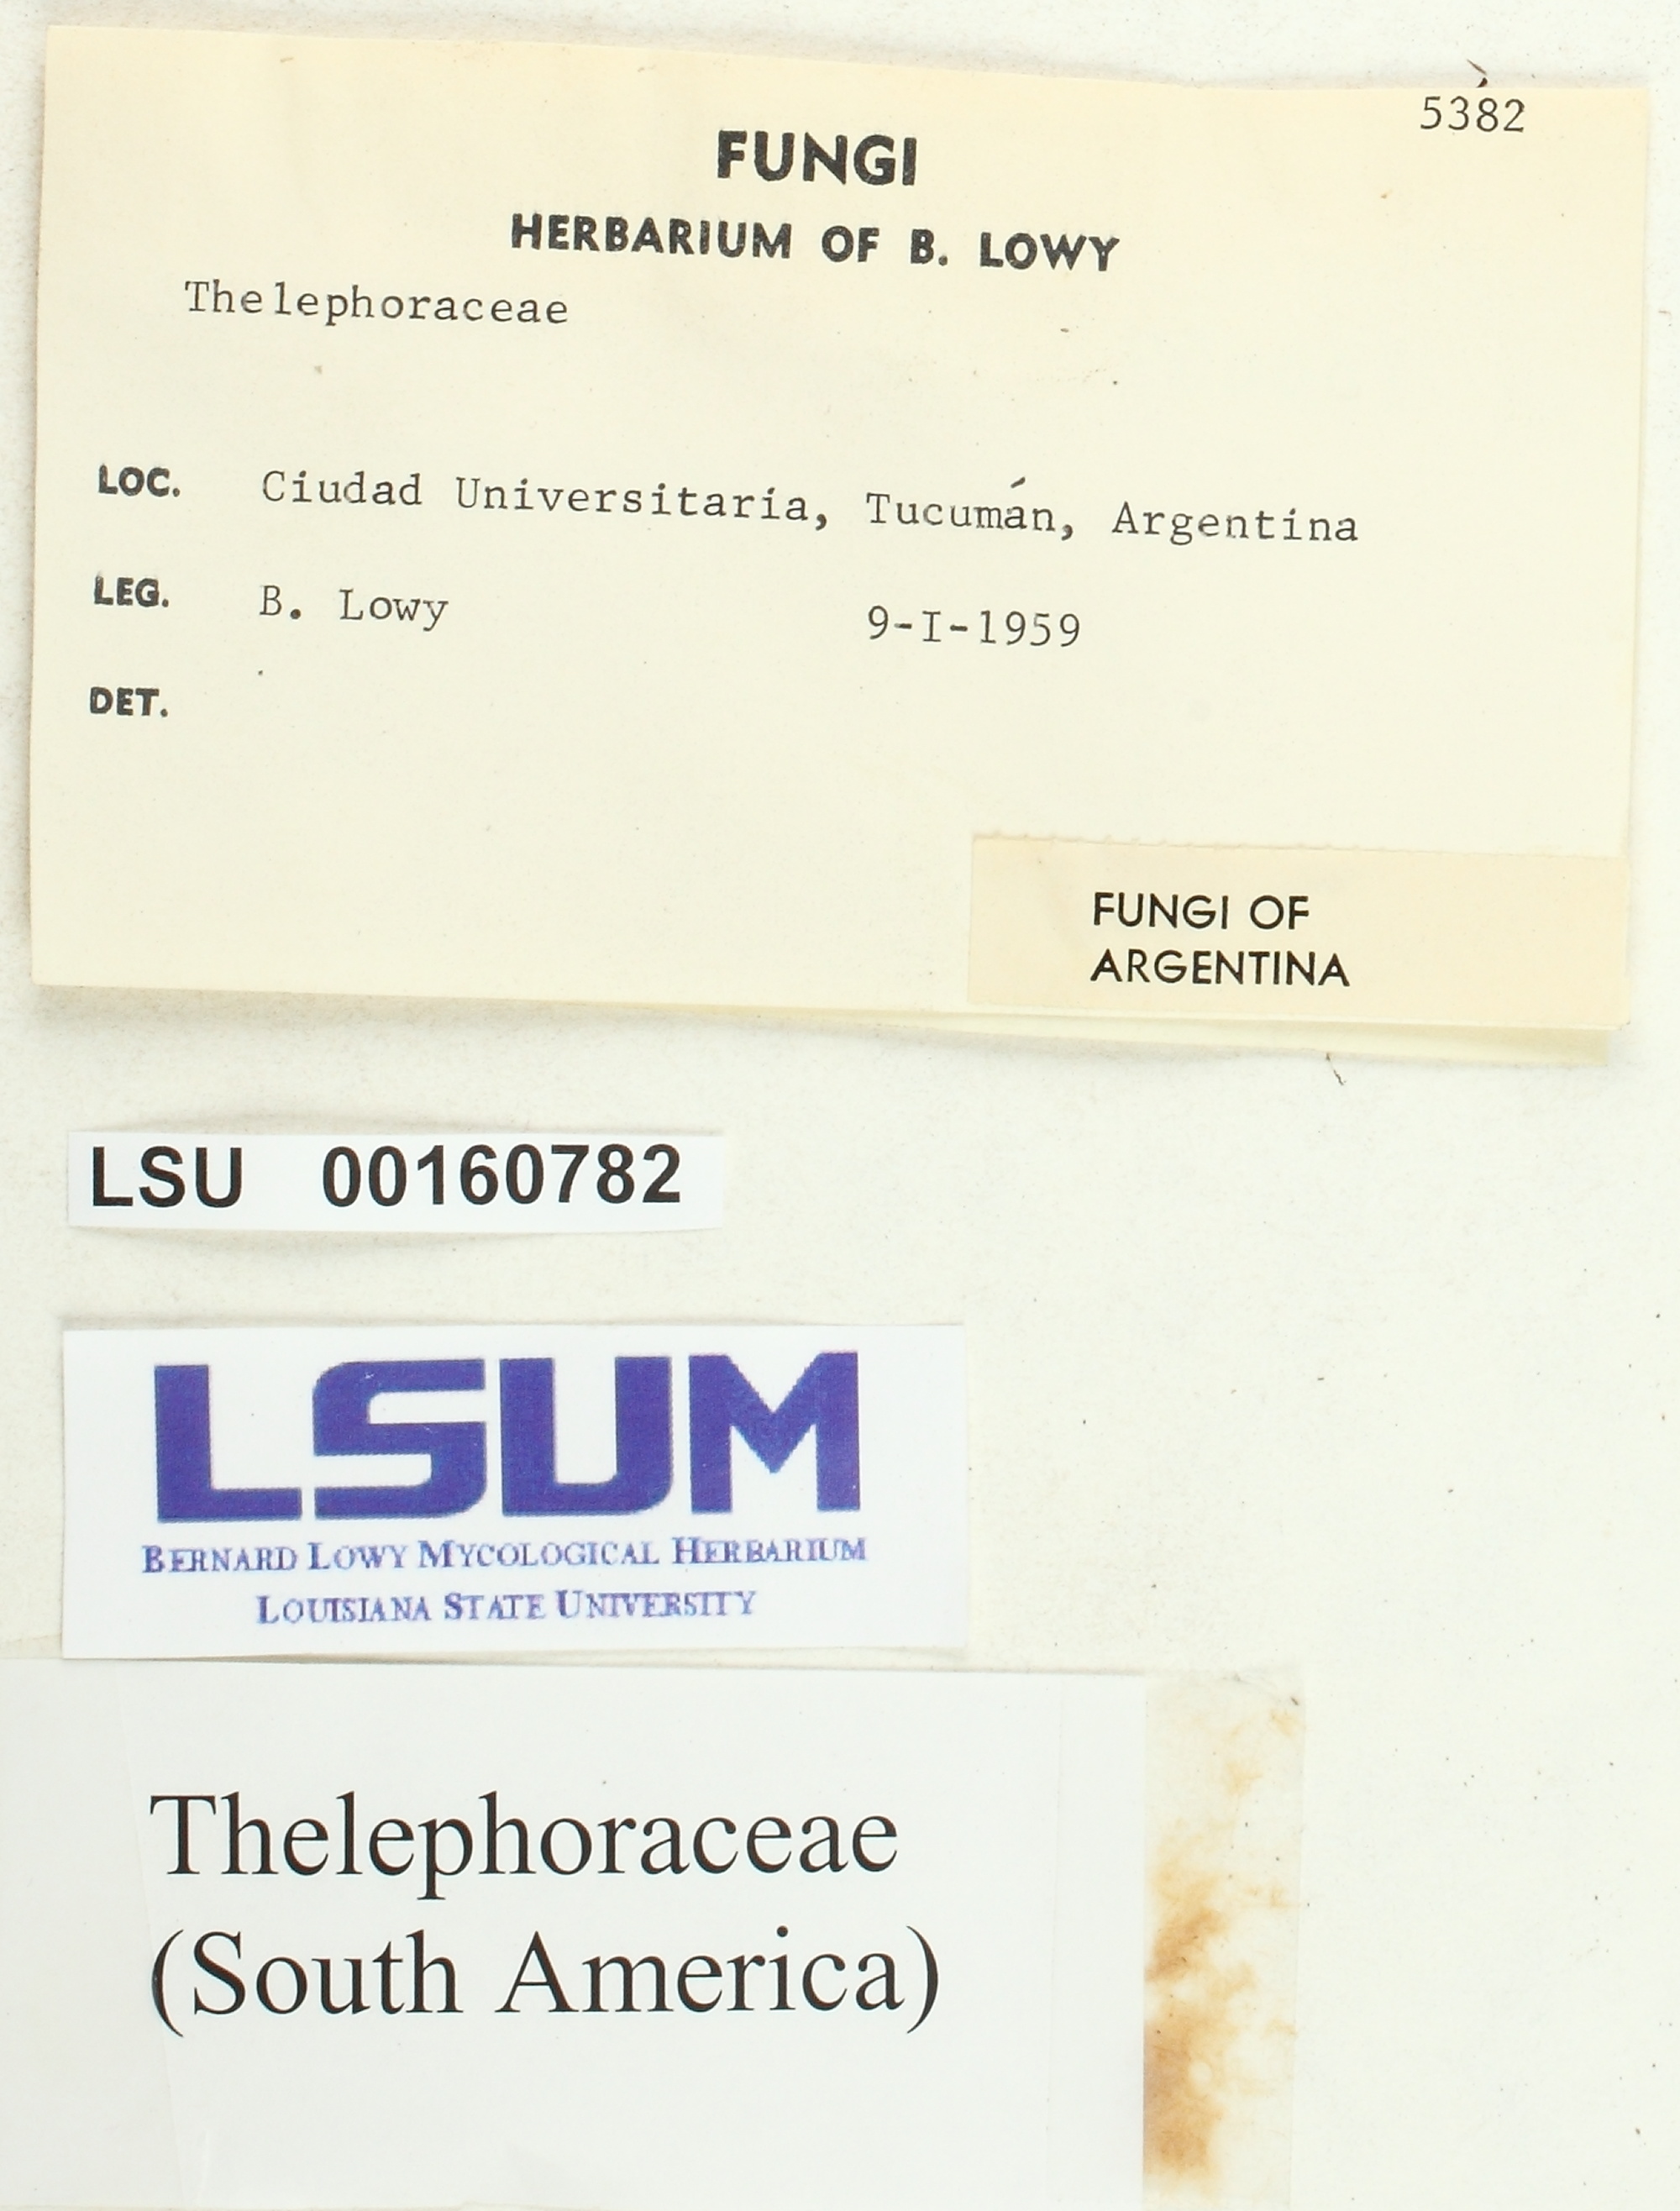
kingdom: Fungi
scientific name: Fungi
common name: Fungi
